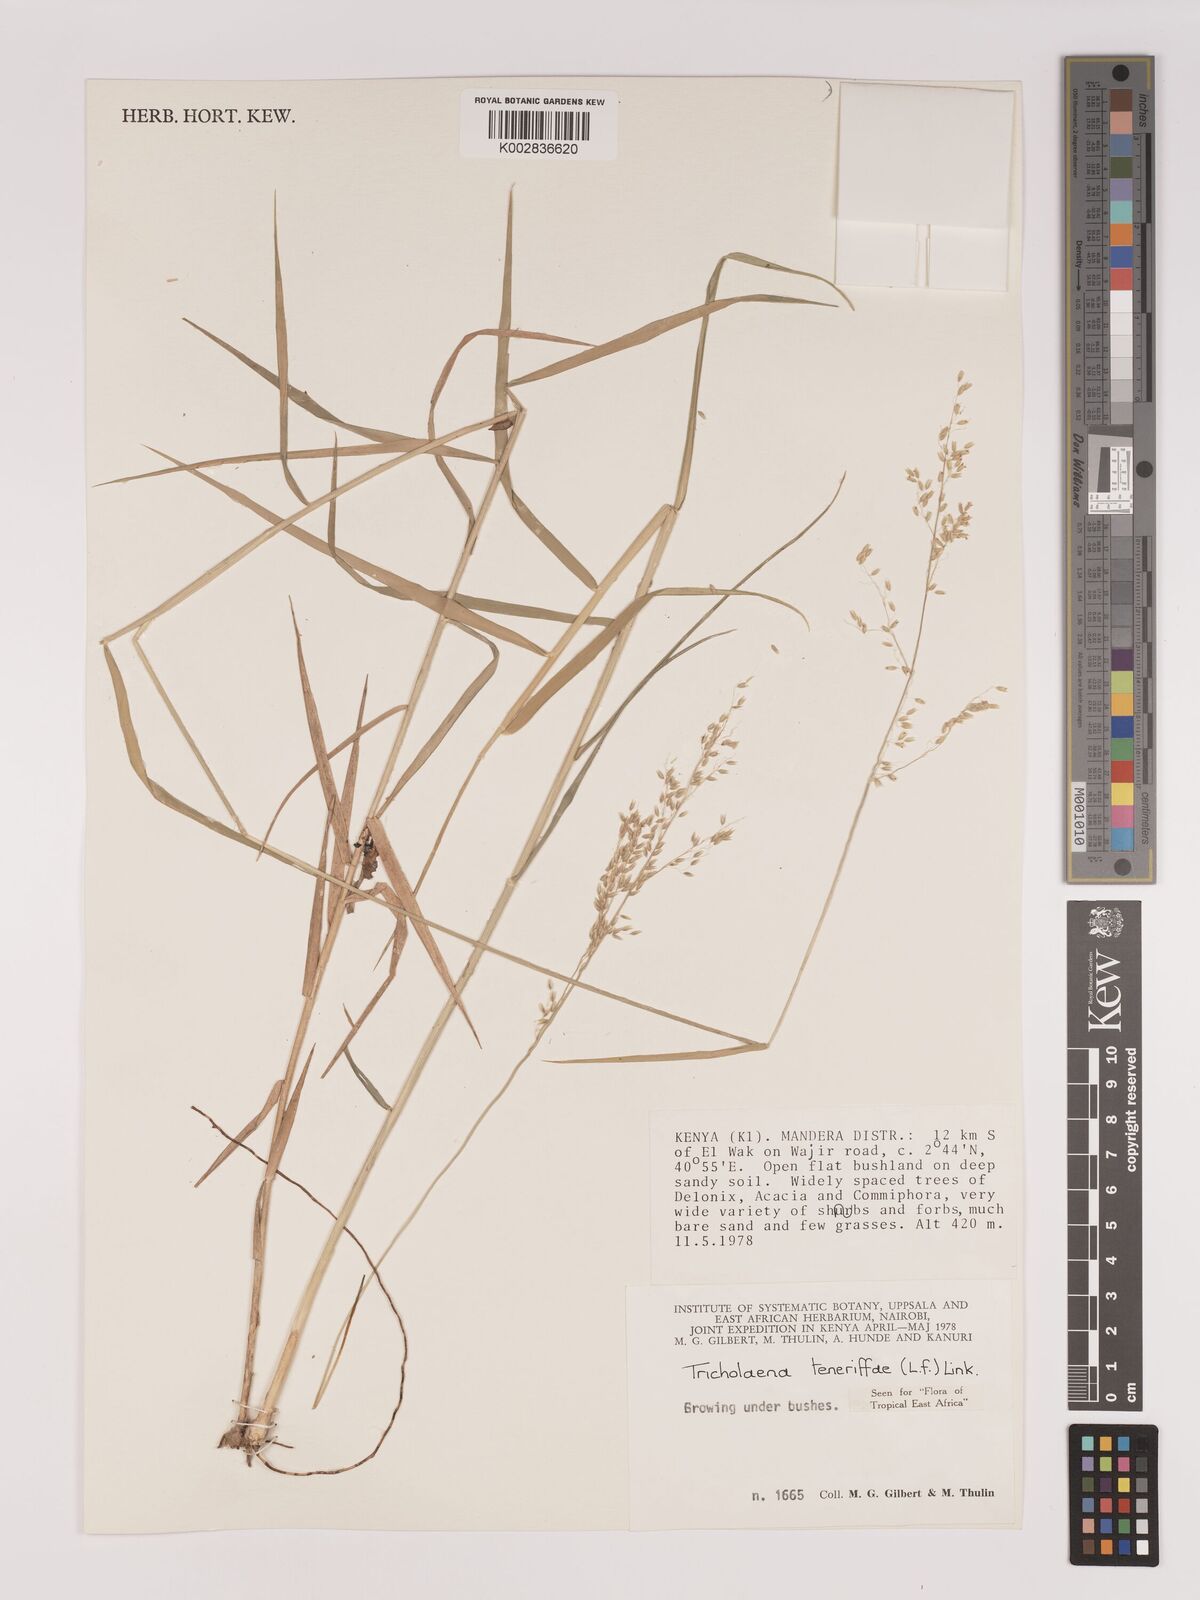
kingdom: Plantae
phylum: Tracheophyta
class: Liliopsida
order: Poales
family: Poaceae
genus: Tricholaena
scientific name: Tricholaena teneriffae
